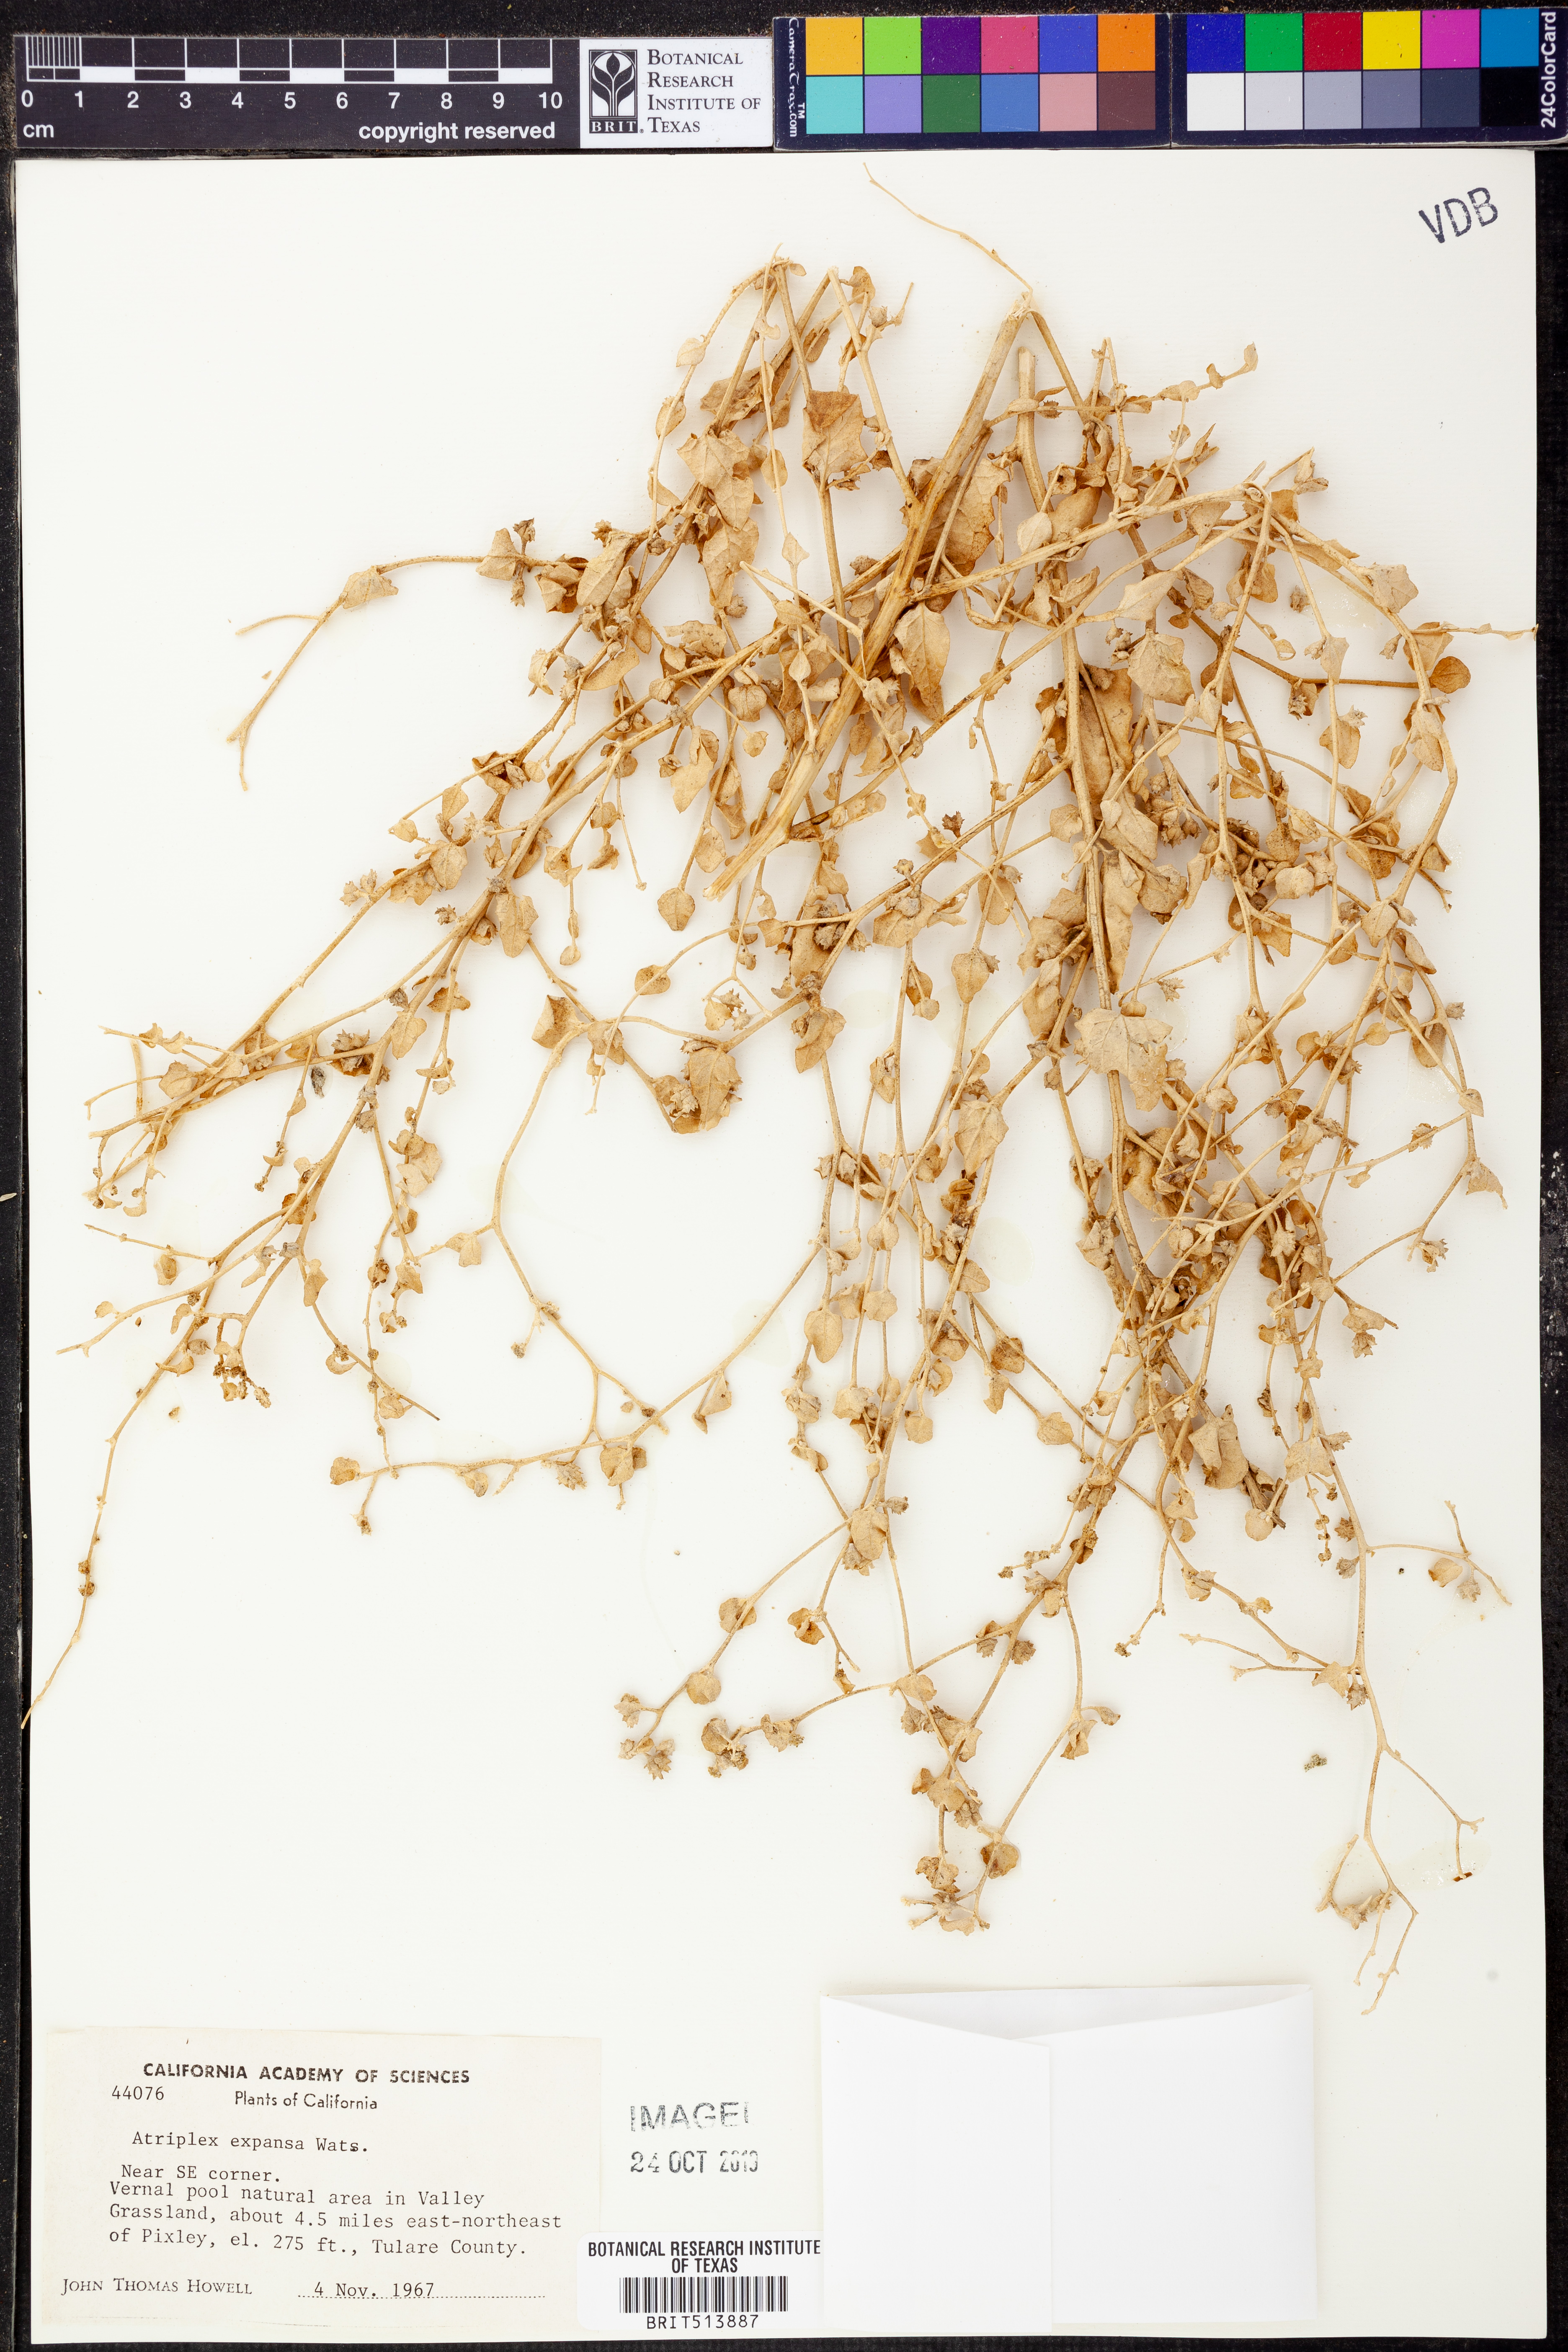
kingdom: Plantae
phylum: Tracheophyta
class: Magnoliopsida
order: Caryophyllales
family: Amaranthaceae
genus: Atriplex
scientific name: Atriplex argentea
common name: Silverscale
